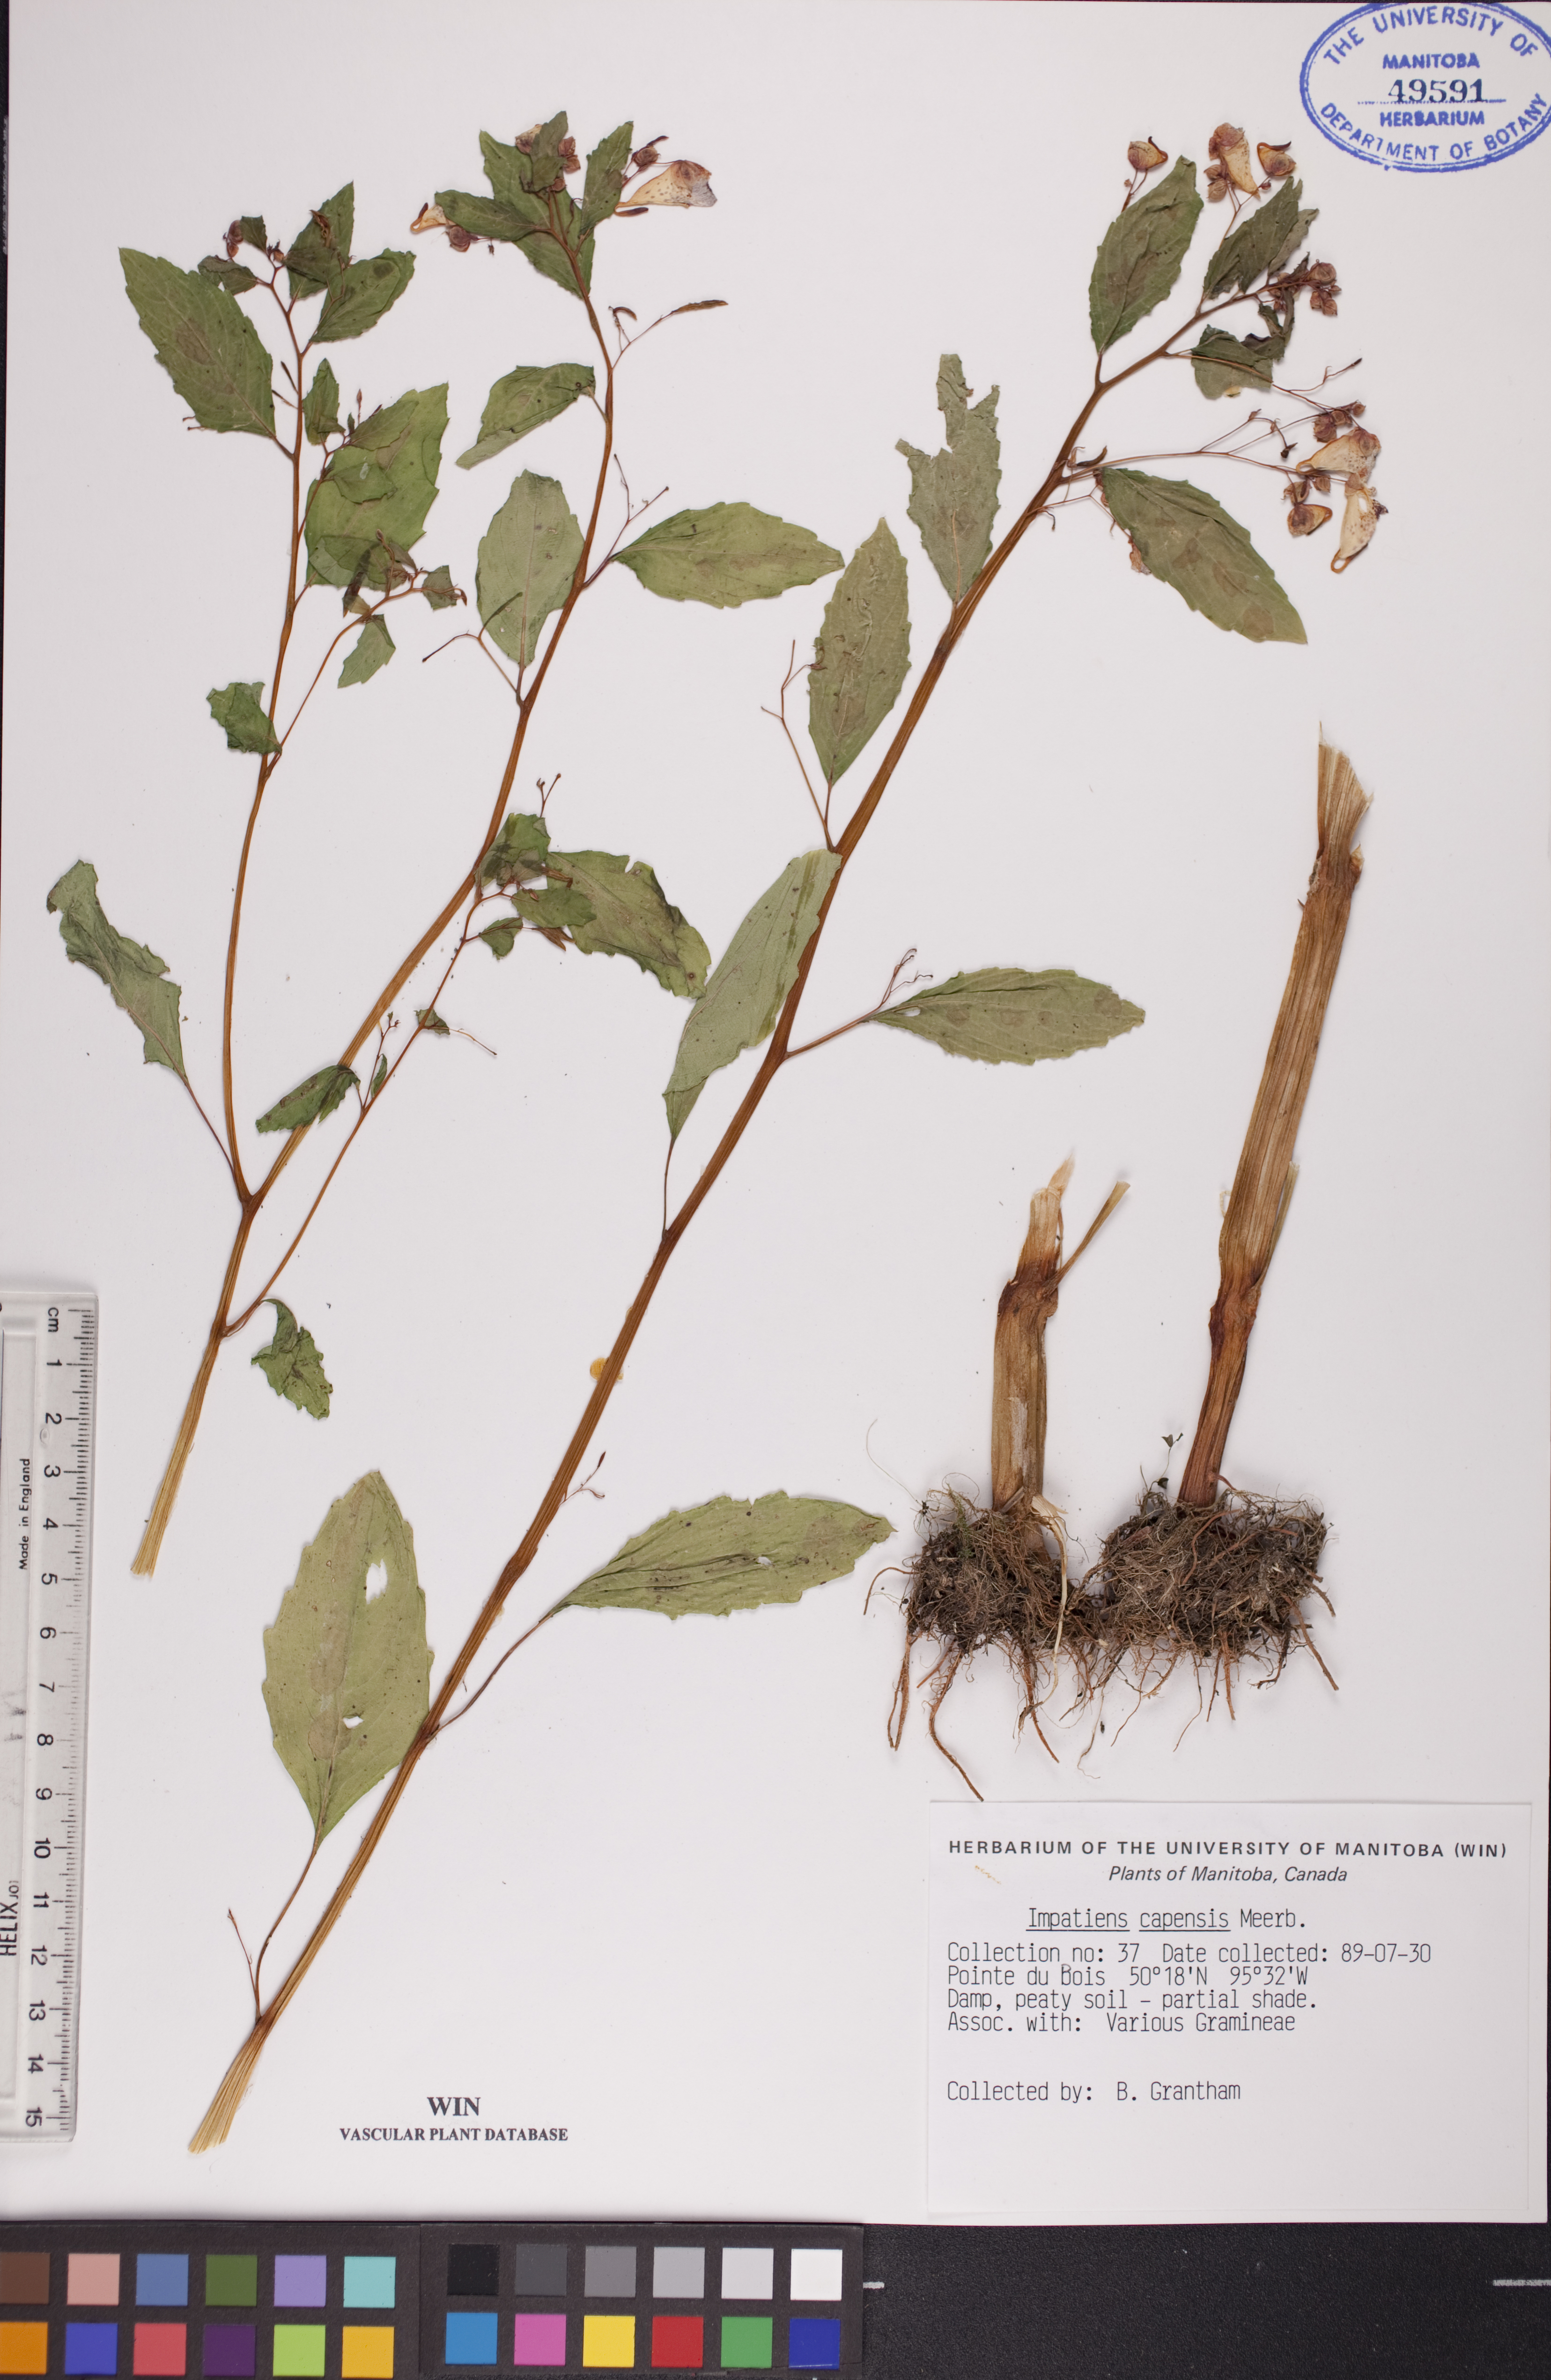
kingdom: Plantae
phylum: Tracheophyta
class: Magnoliopsida
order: Ericales
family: Balsaminaceae
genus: Impatiens
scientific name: Impatiens capensis
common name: Orange balsam
